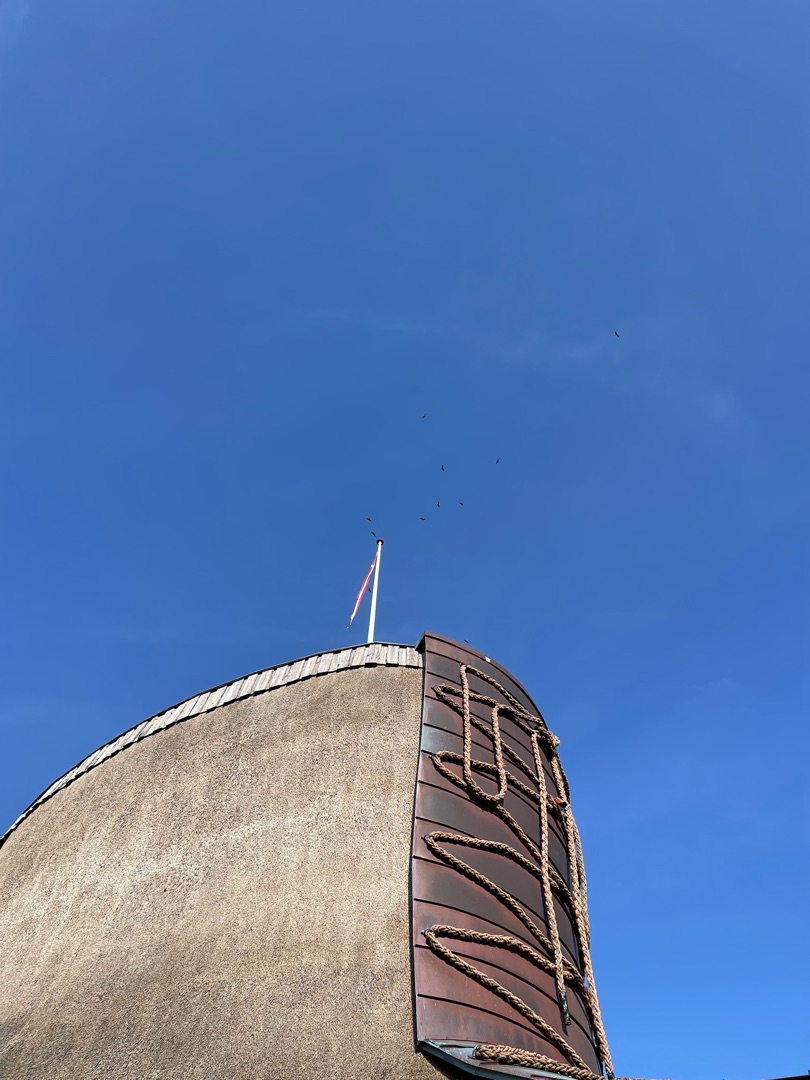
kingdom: Animalia
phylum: Chordata
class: Aves
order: Accipitriformes
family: Accipitridae
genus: Buteo
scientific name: Buteo buteo
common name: Musvåge
